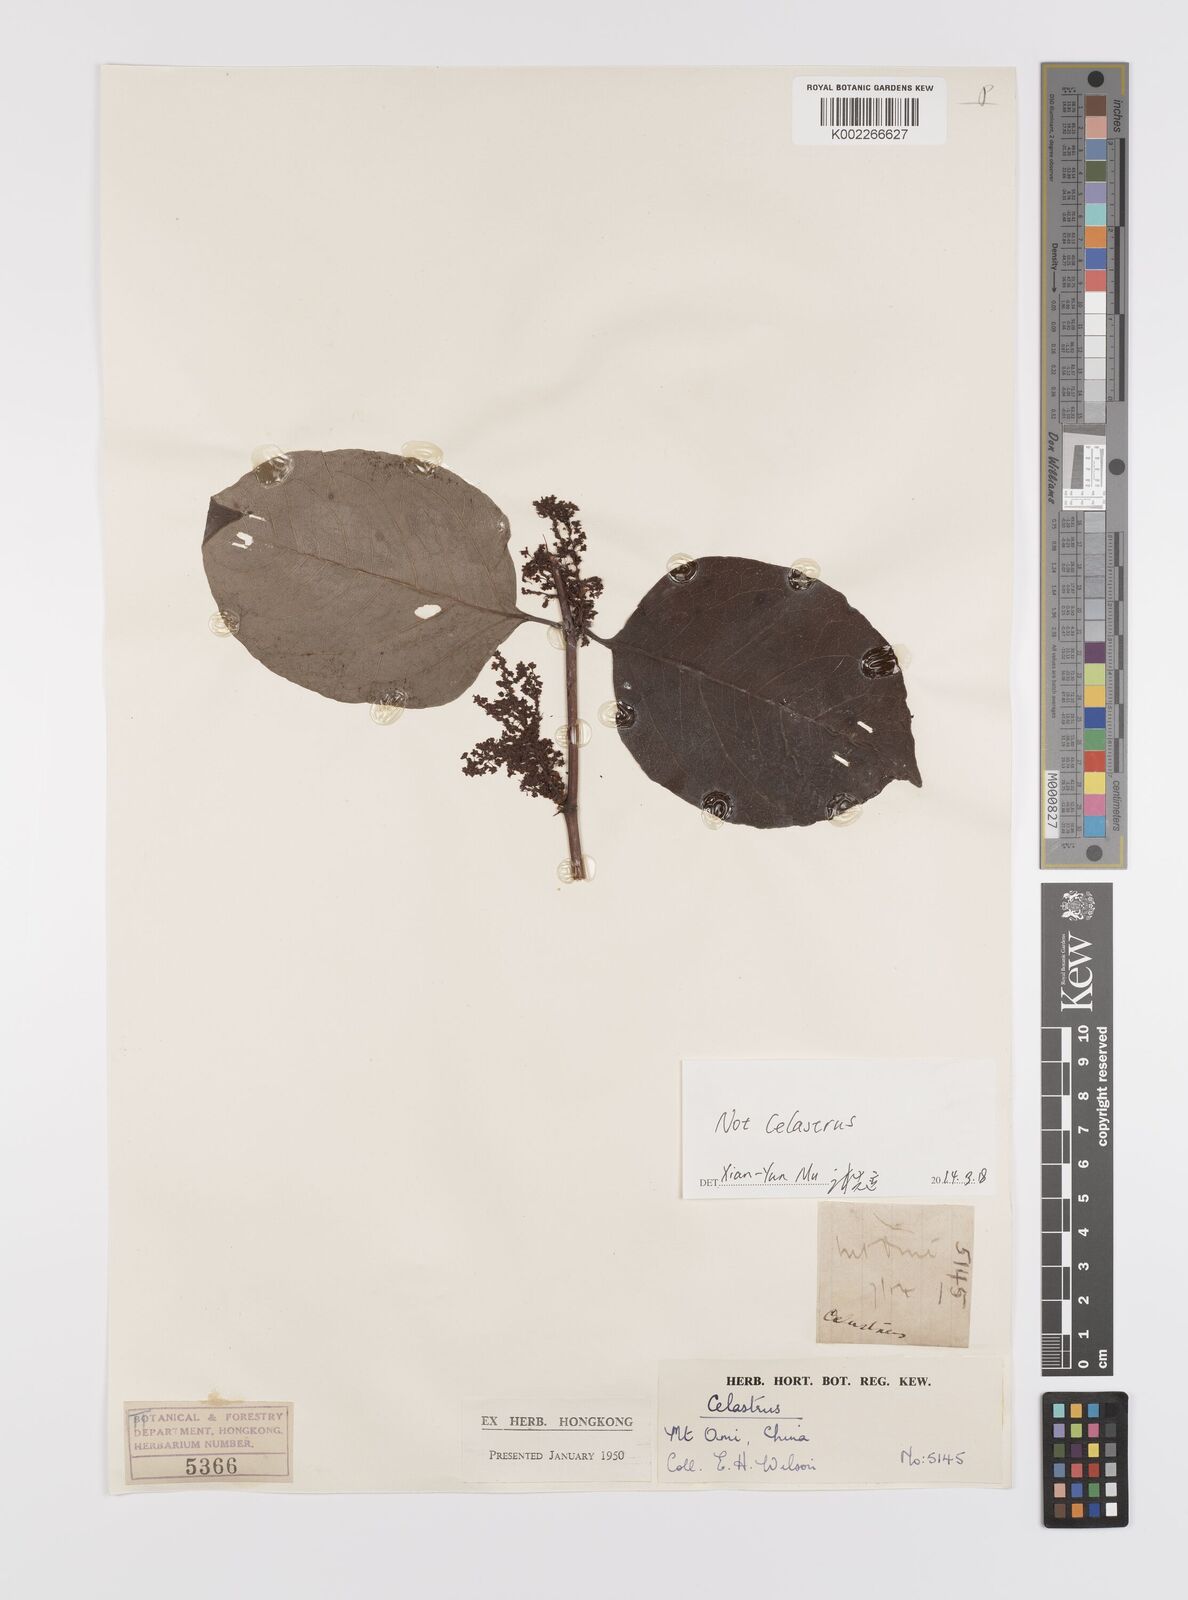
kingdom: Plantae
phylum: Tracheophyta
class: Magnoliopsida
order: Celastrales
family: Celastraceae
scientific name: Celastraceae
